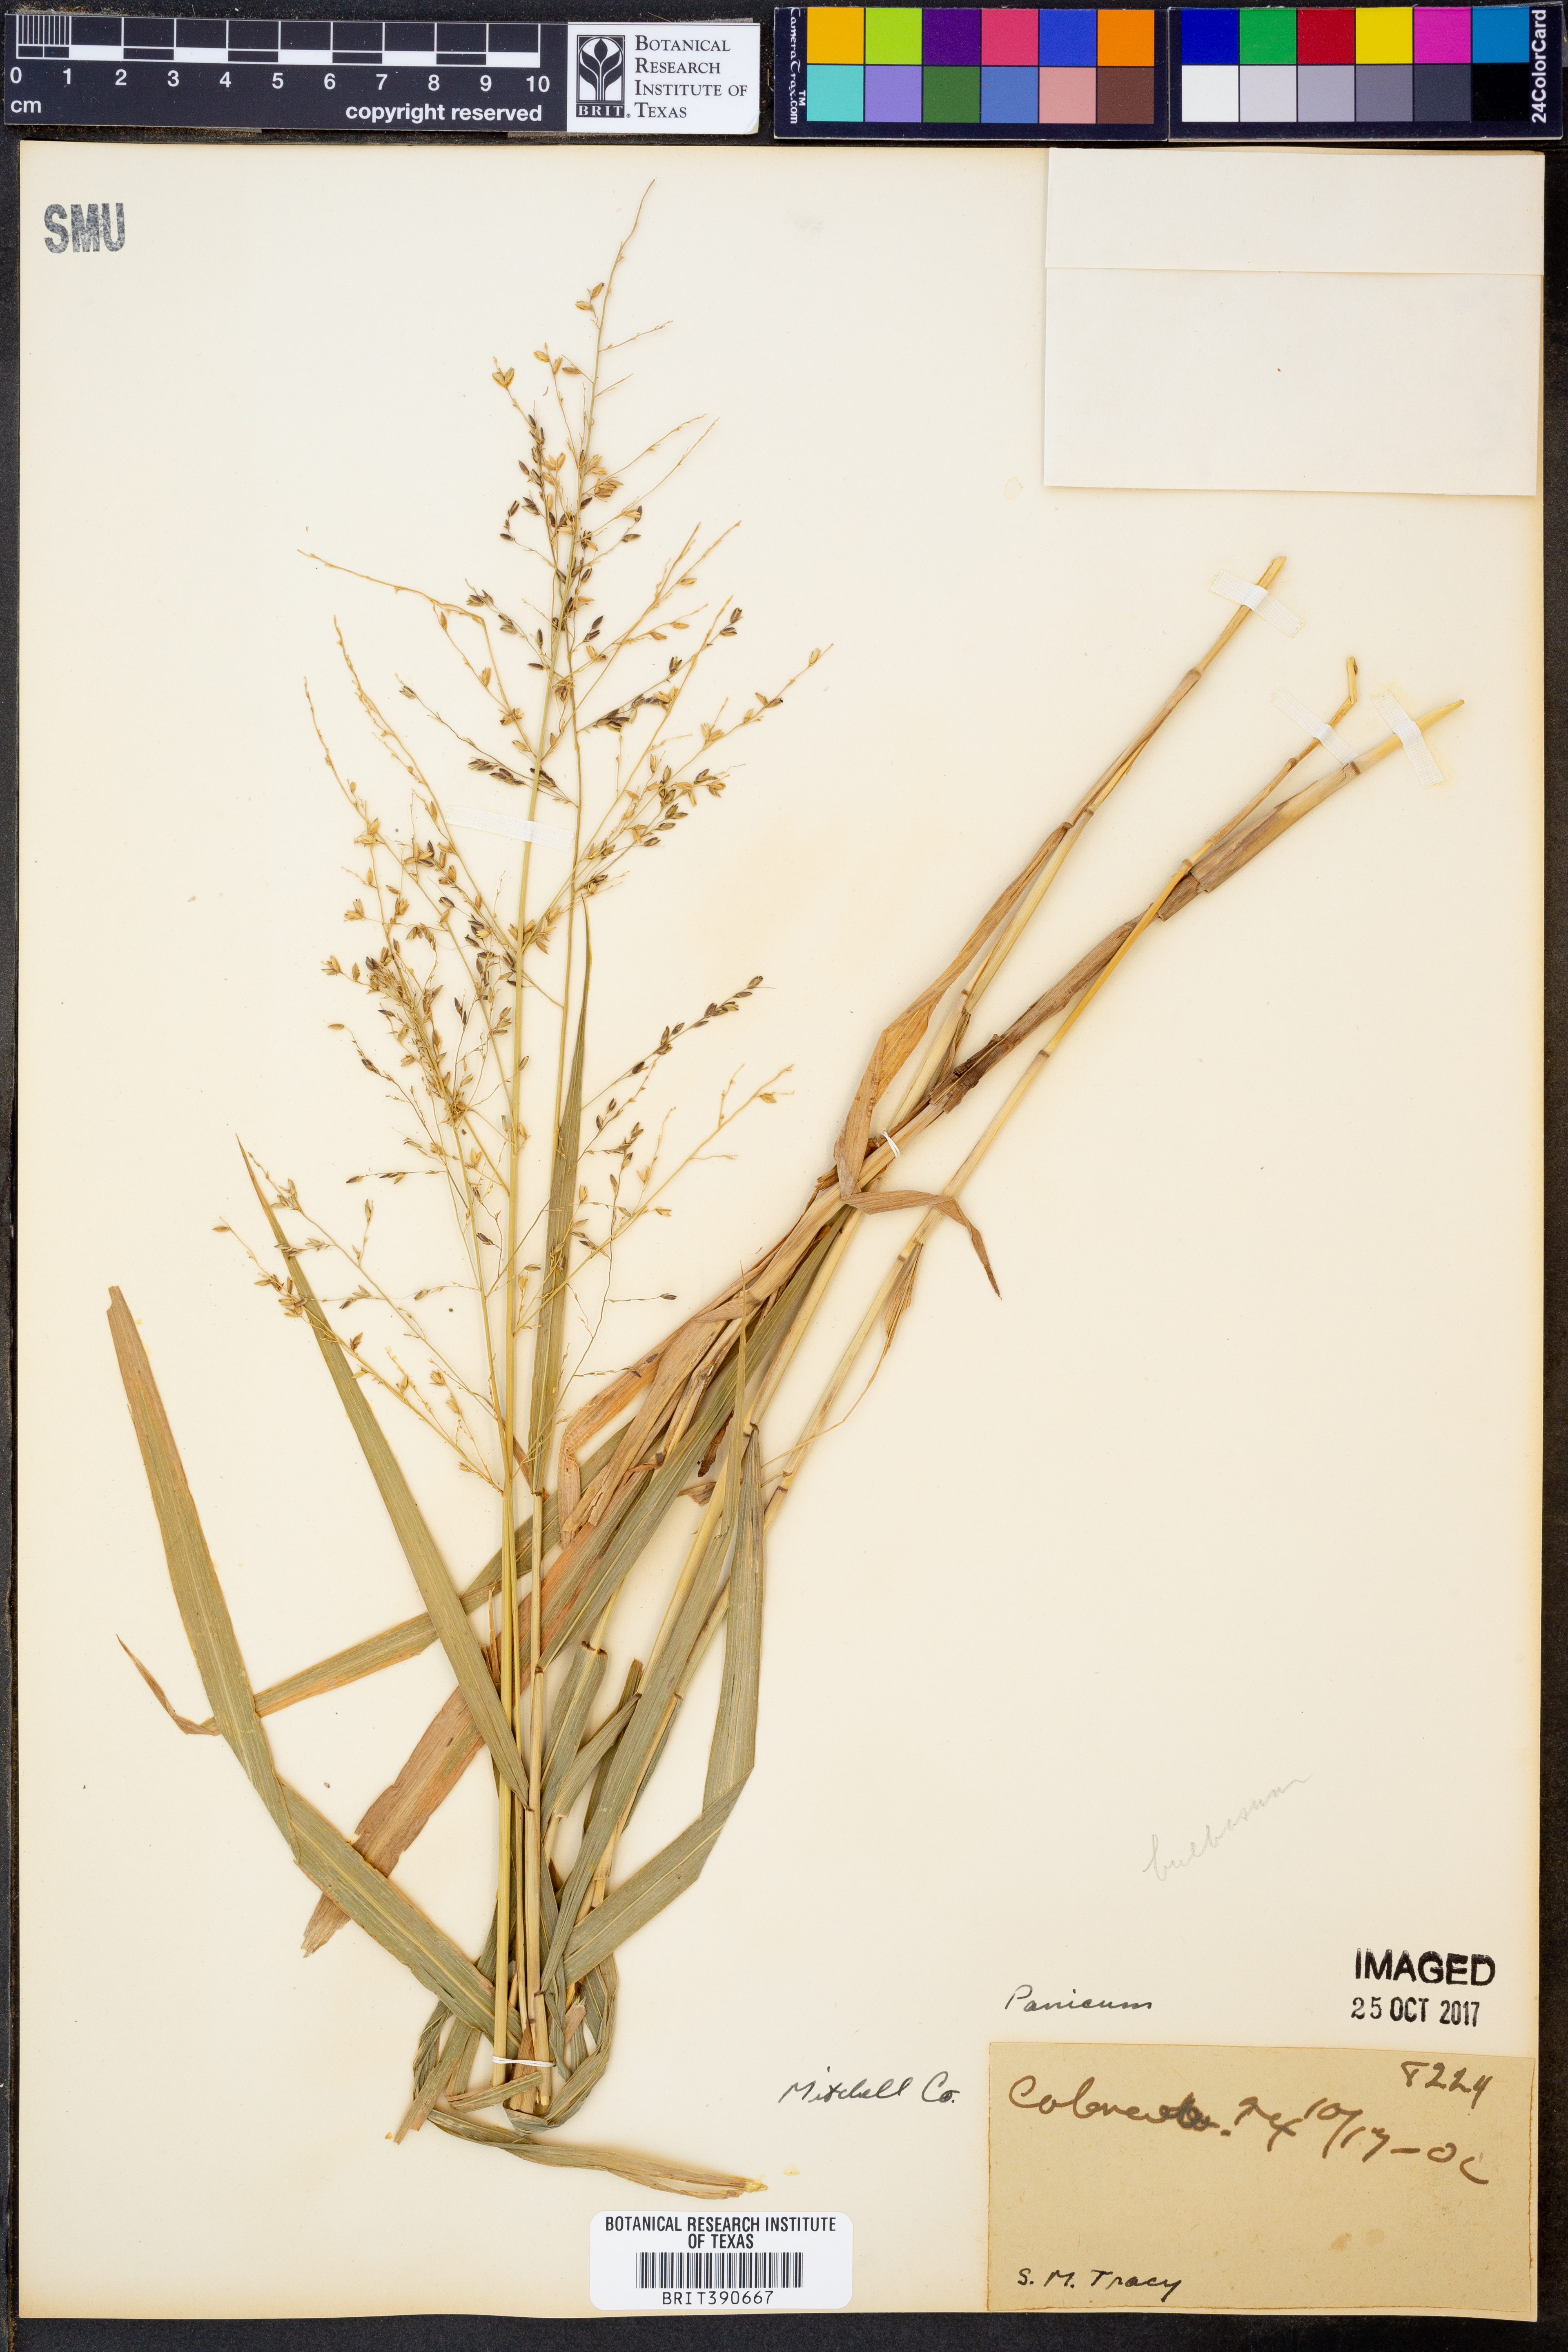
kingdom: Plantae
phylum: Tracheophyta
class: Liliopsida
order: Poales
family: Poaceae
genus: Panicum
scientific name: Panicum
